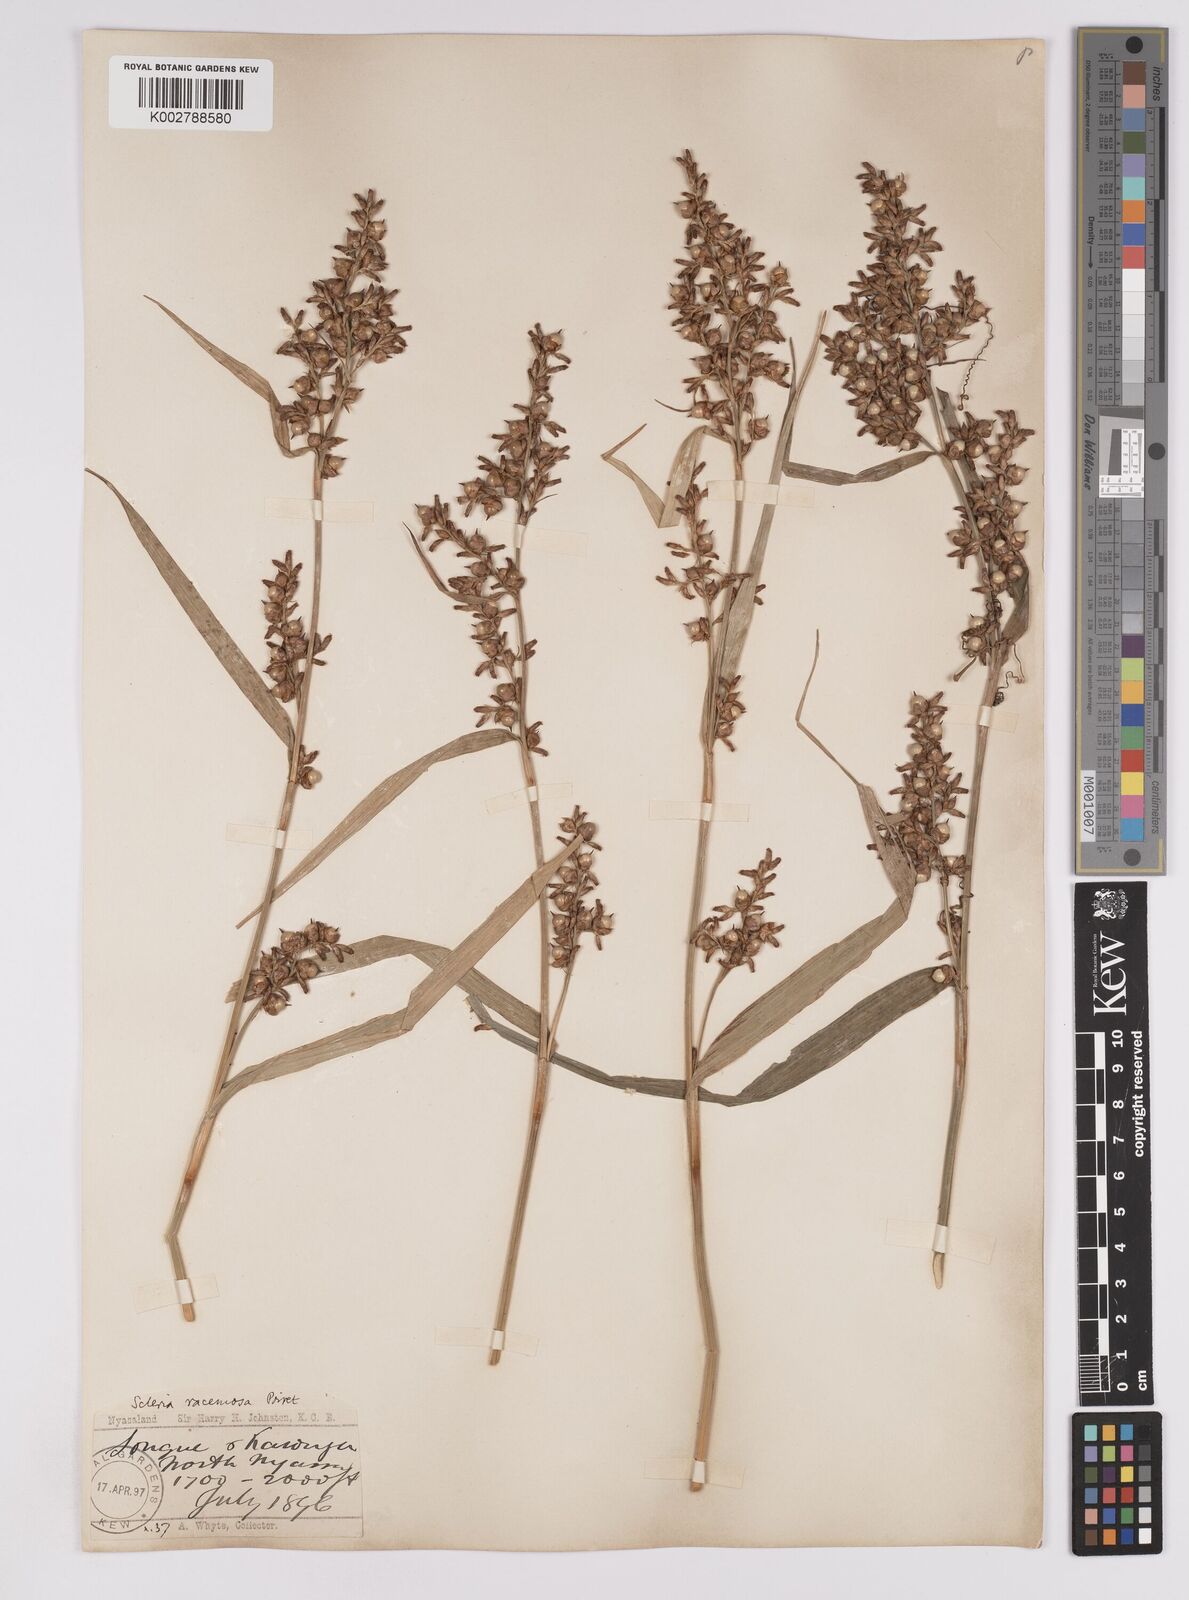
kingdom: Plantae
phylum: Tracheophyta
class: Liliopsida
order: Poales
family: Cyperaceae
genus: Scleria
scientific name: Scleria racemosa
